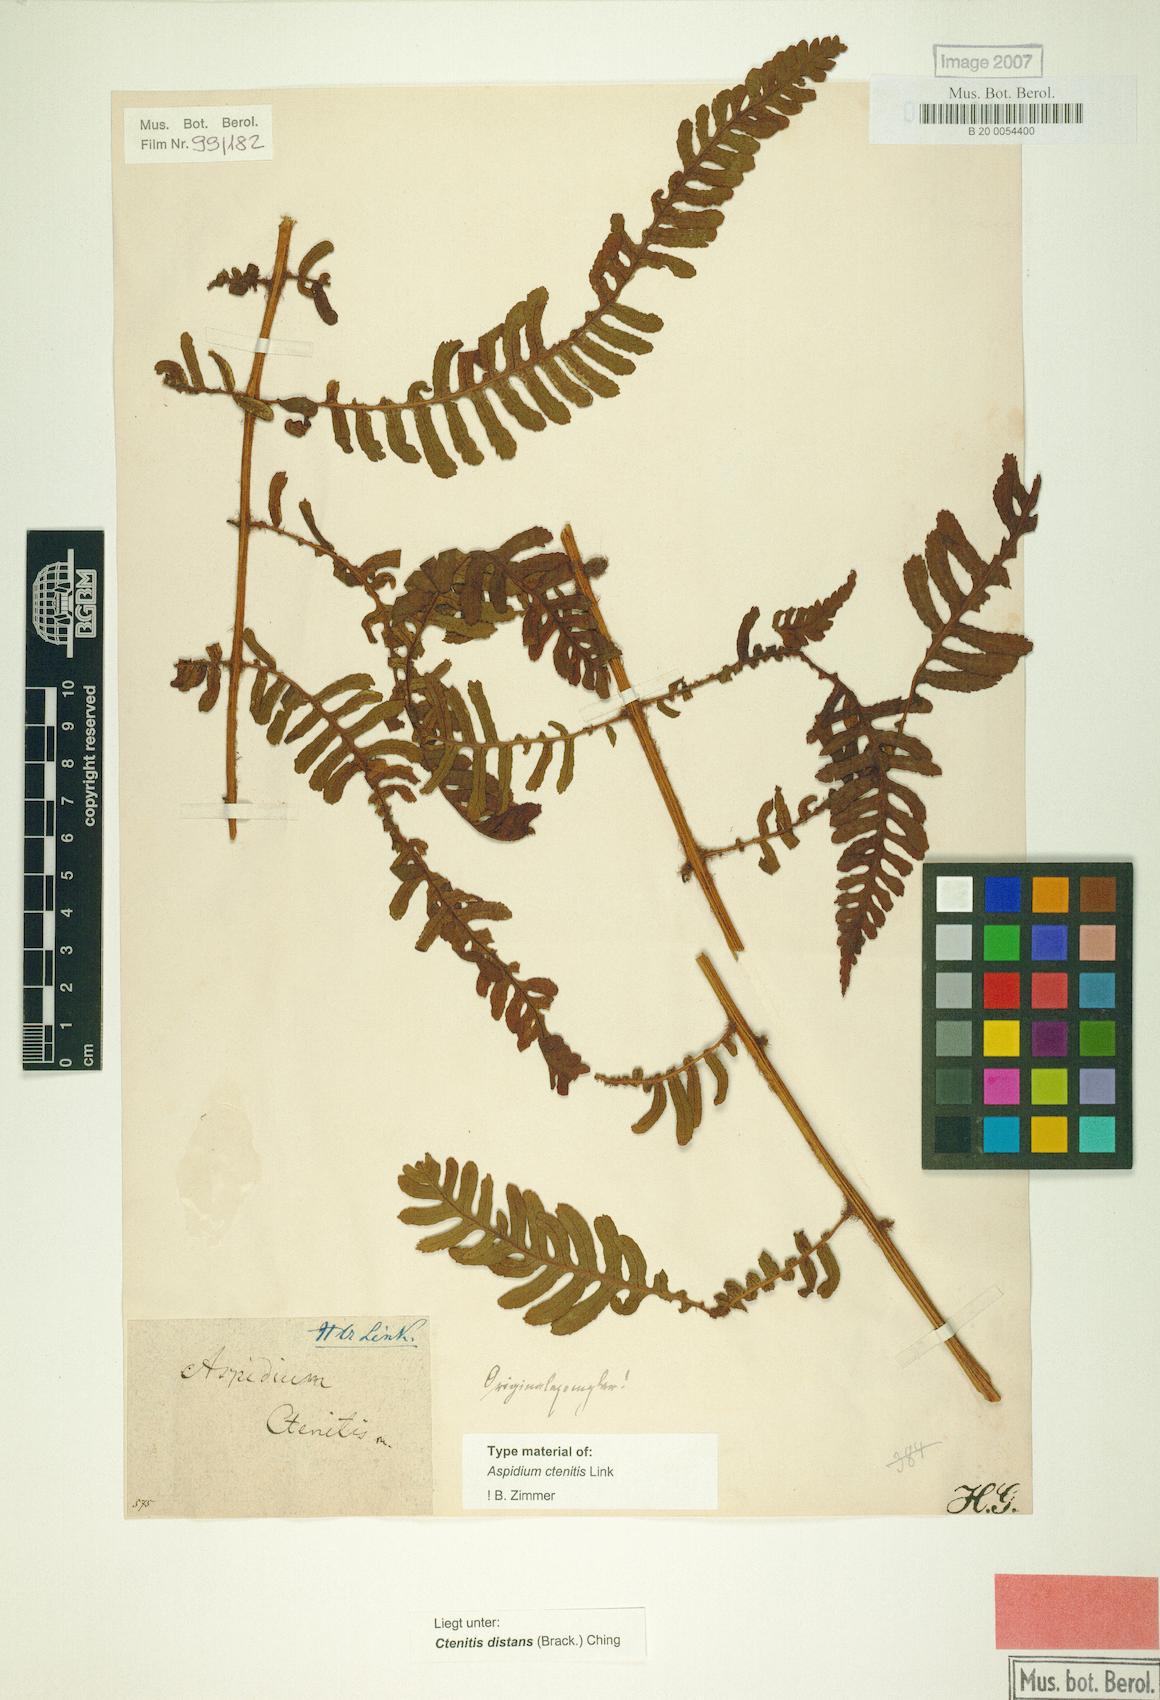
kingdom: Plantae
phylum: Tracheophyta
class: Polypodiopsida
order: Polypodiales
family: Dryopteridaceae
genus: Ctenitis
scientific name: Ctenitis distans
